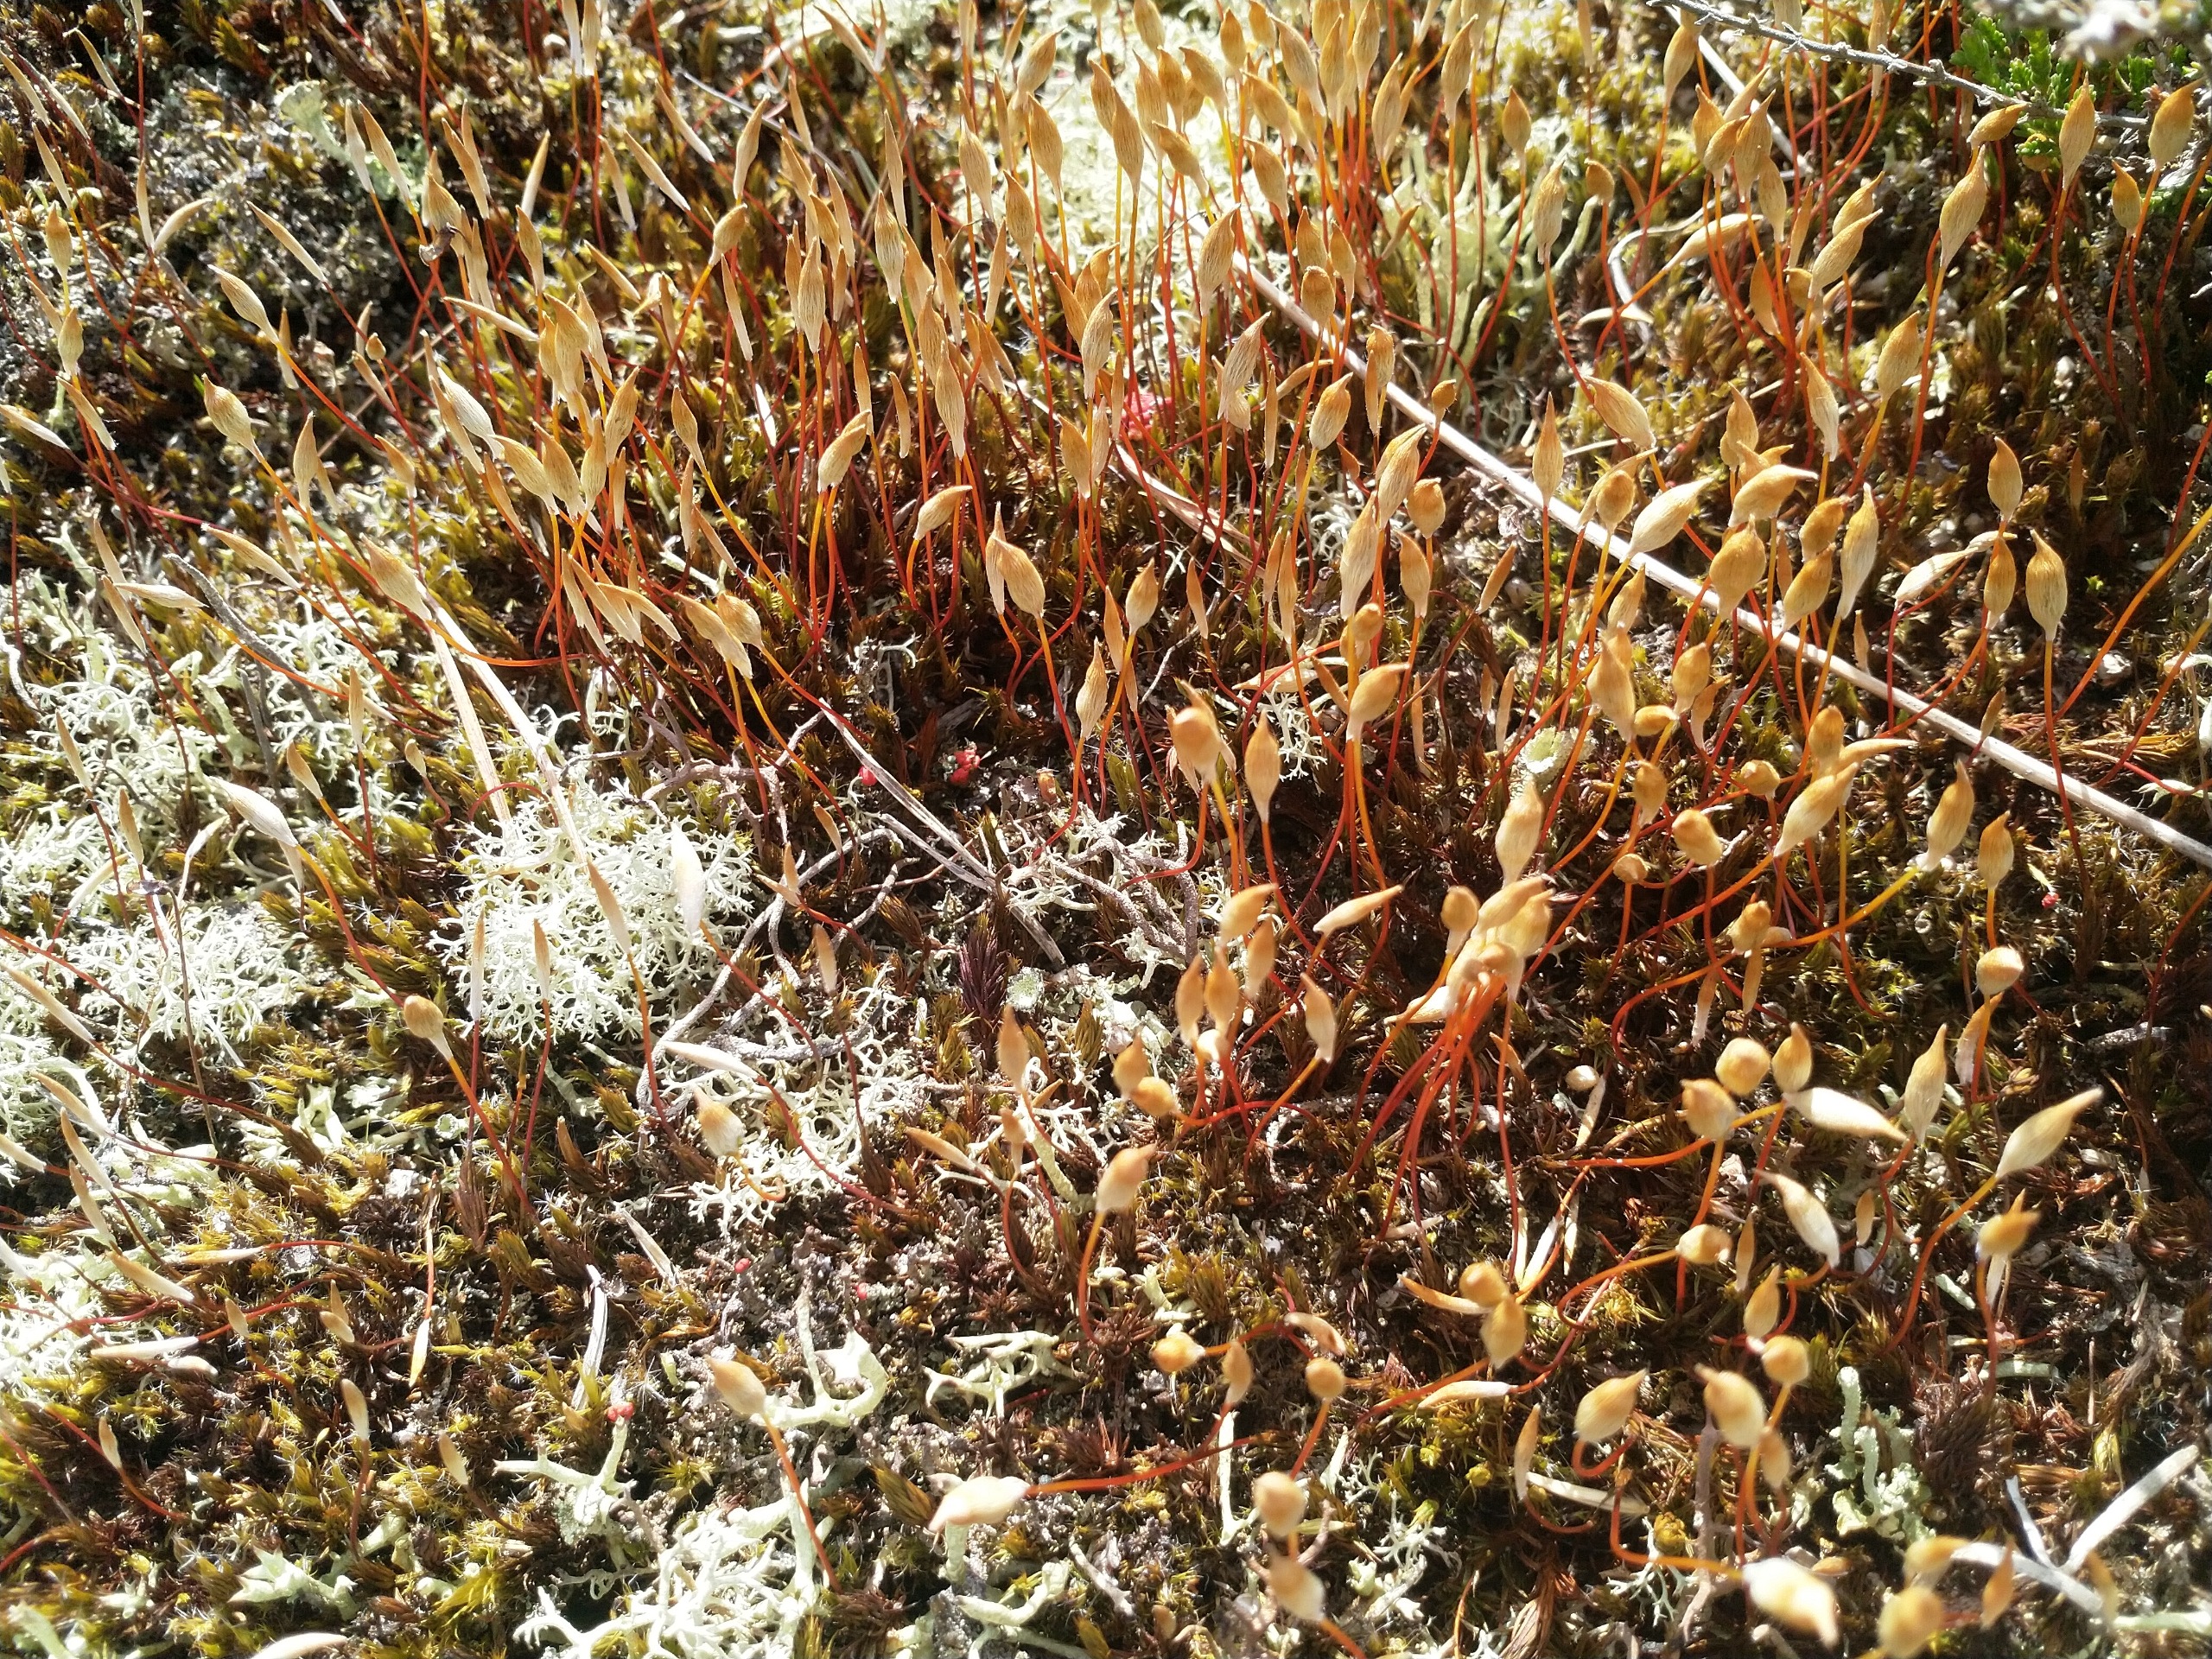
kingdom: Plantae
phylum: Bryophyta
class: Polytrichopsida
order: Polytrichales
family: Polytrichaceae
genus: Polytrichum
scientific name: Polytrichum
